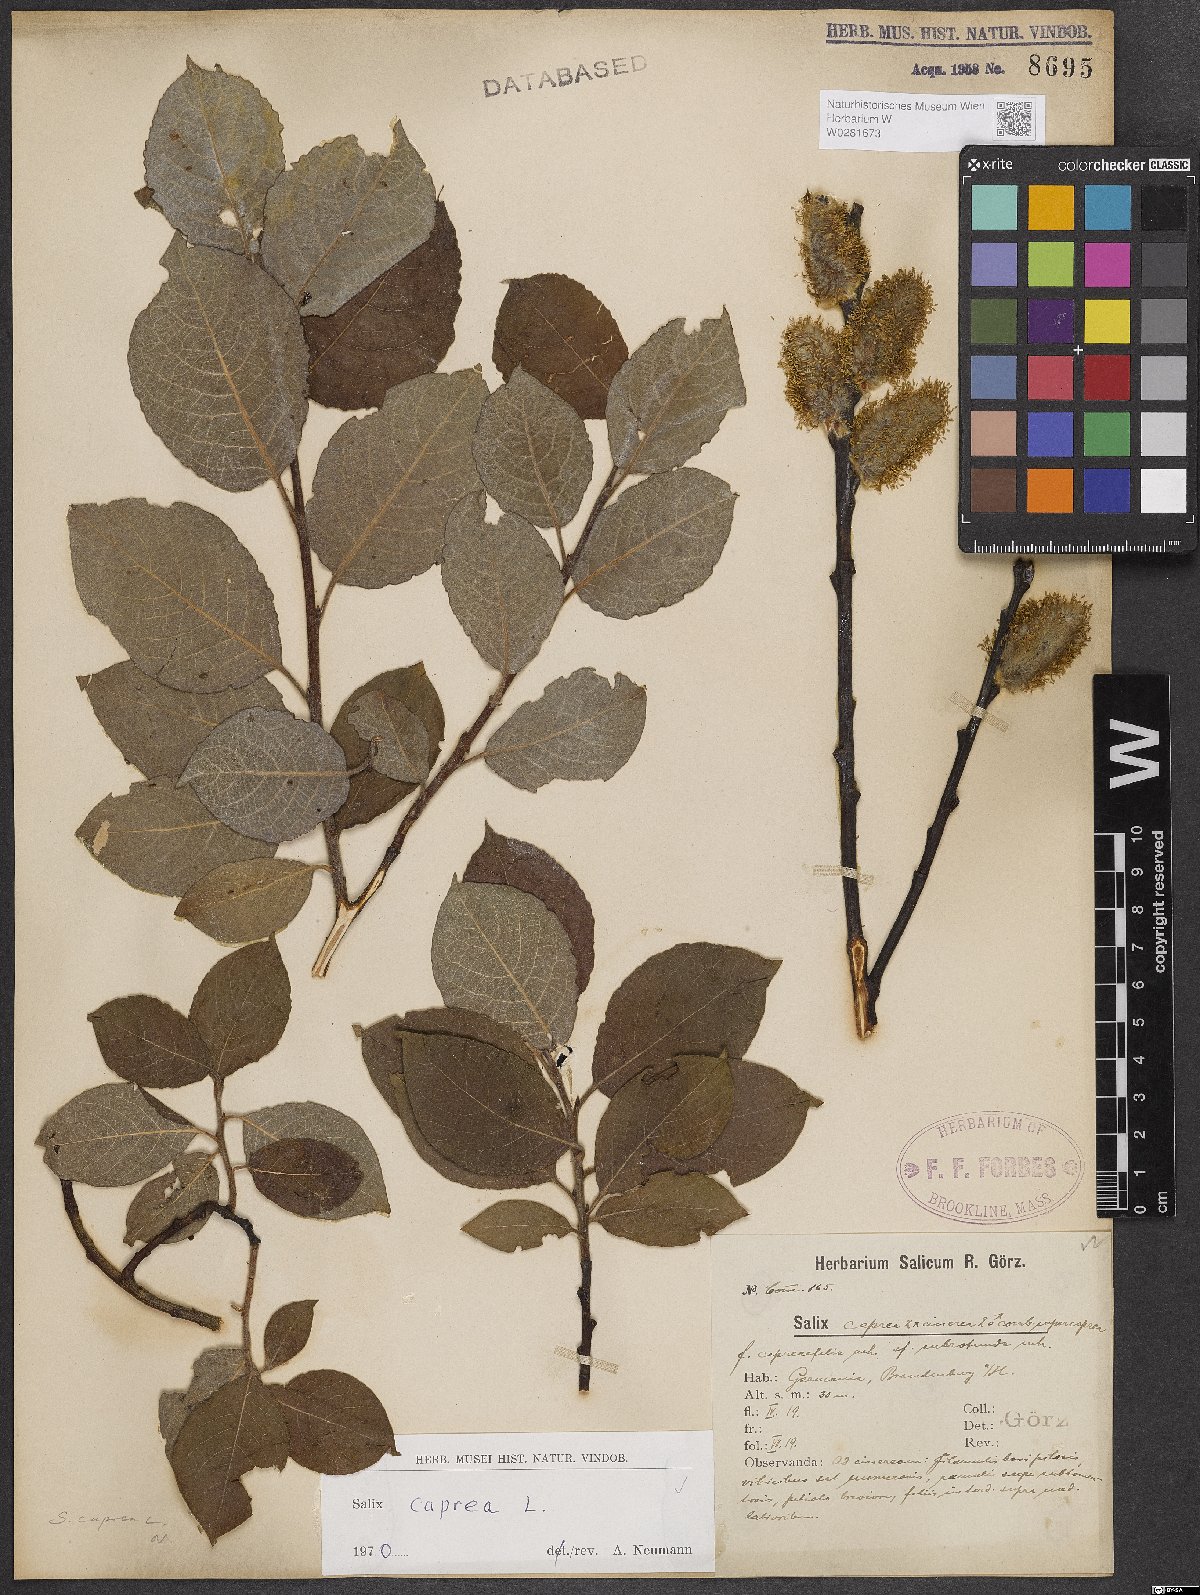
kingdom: Plantae
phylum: Tracheophyta
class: Magnoliopsida
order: Malpighiales
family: Salicaceae
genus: Salix
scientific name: Salix caprea
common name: Goat willow
